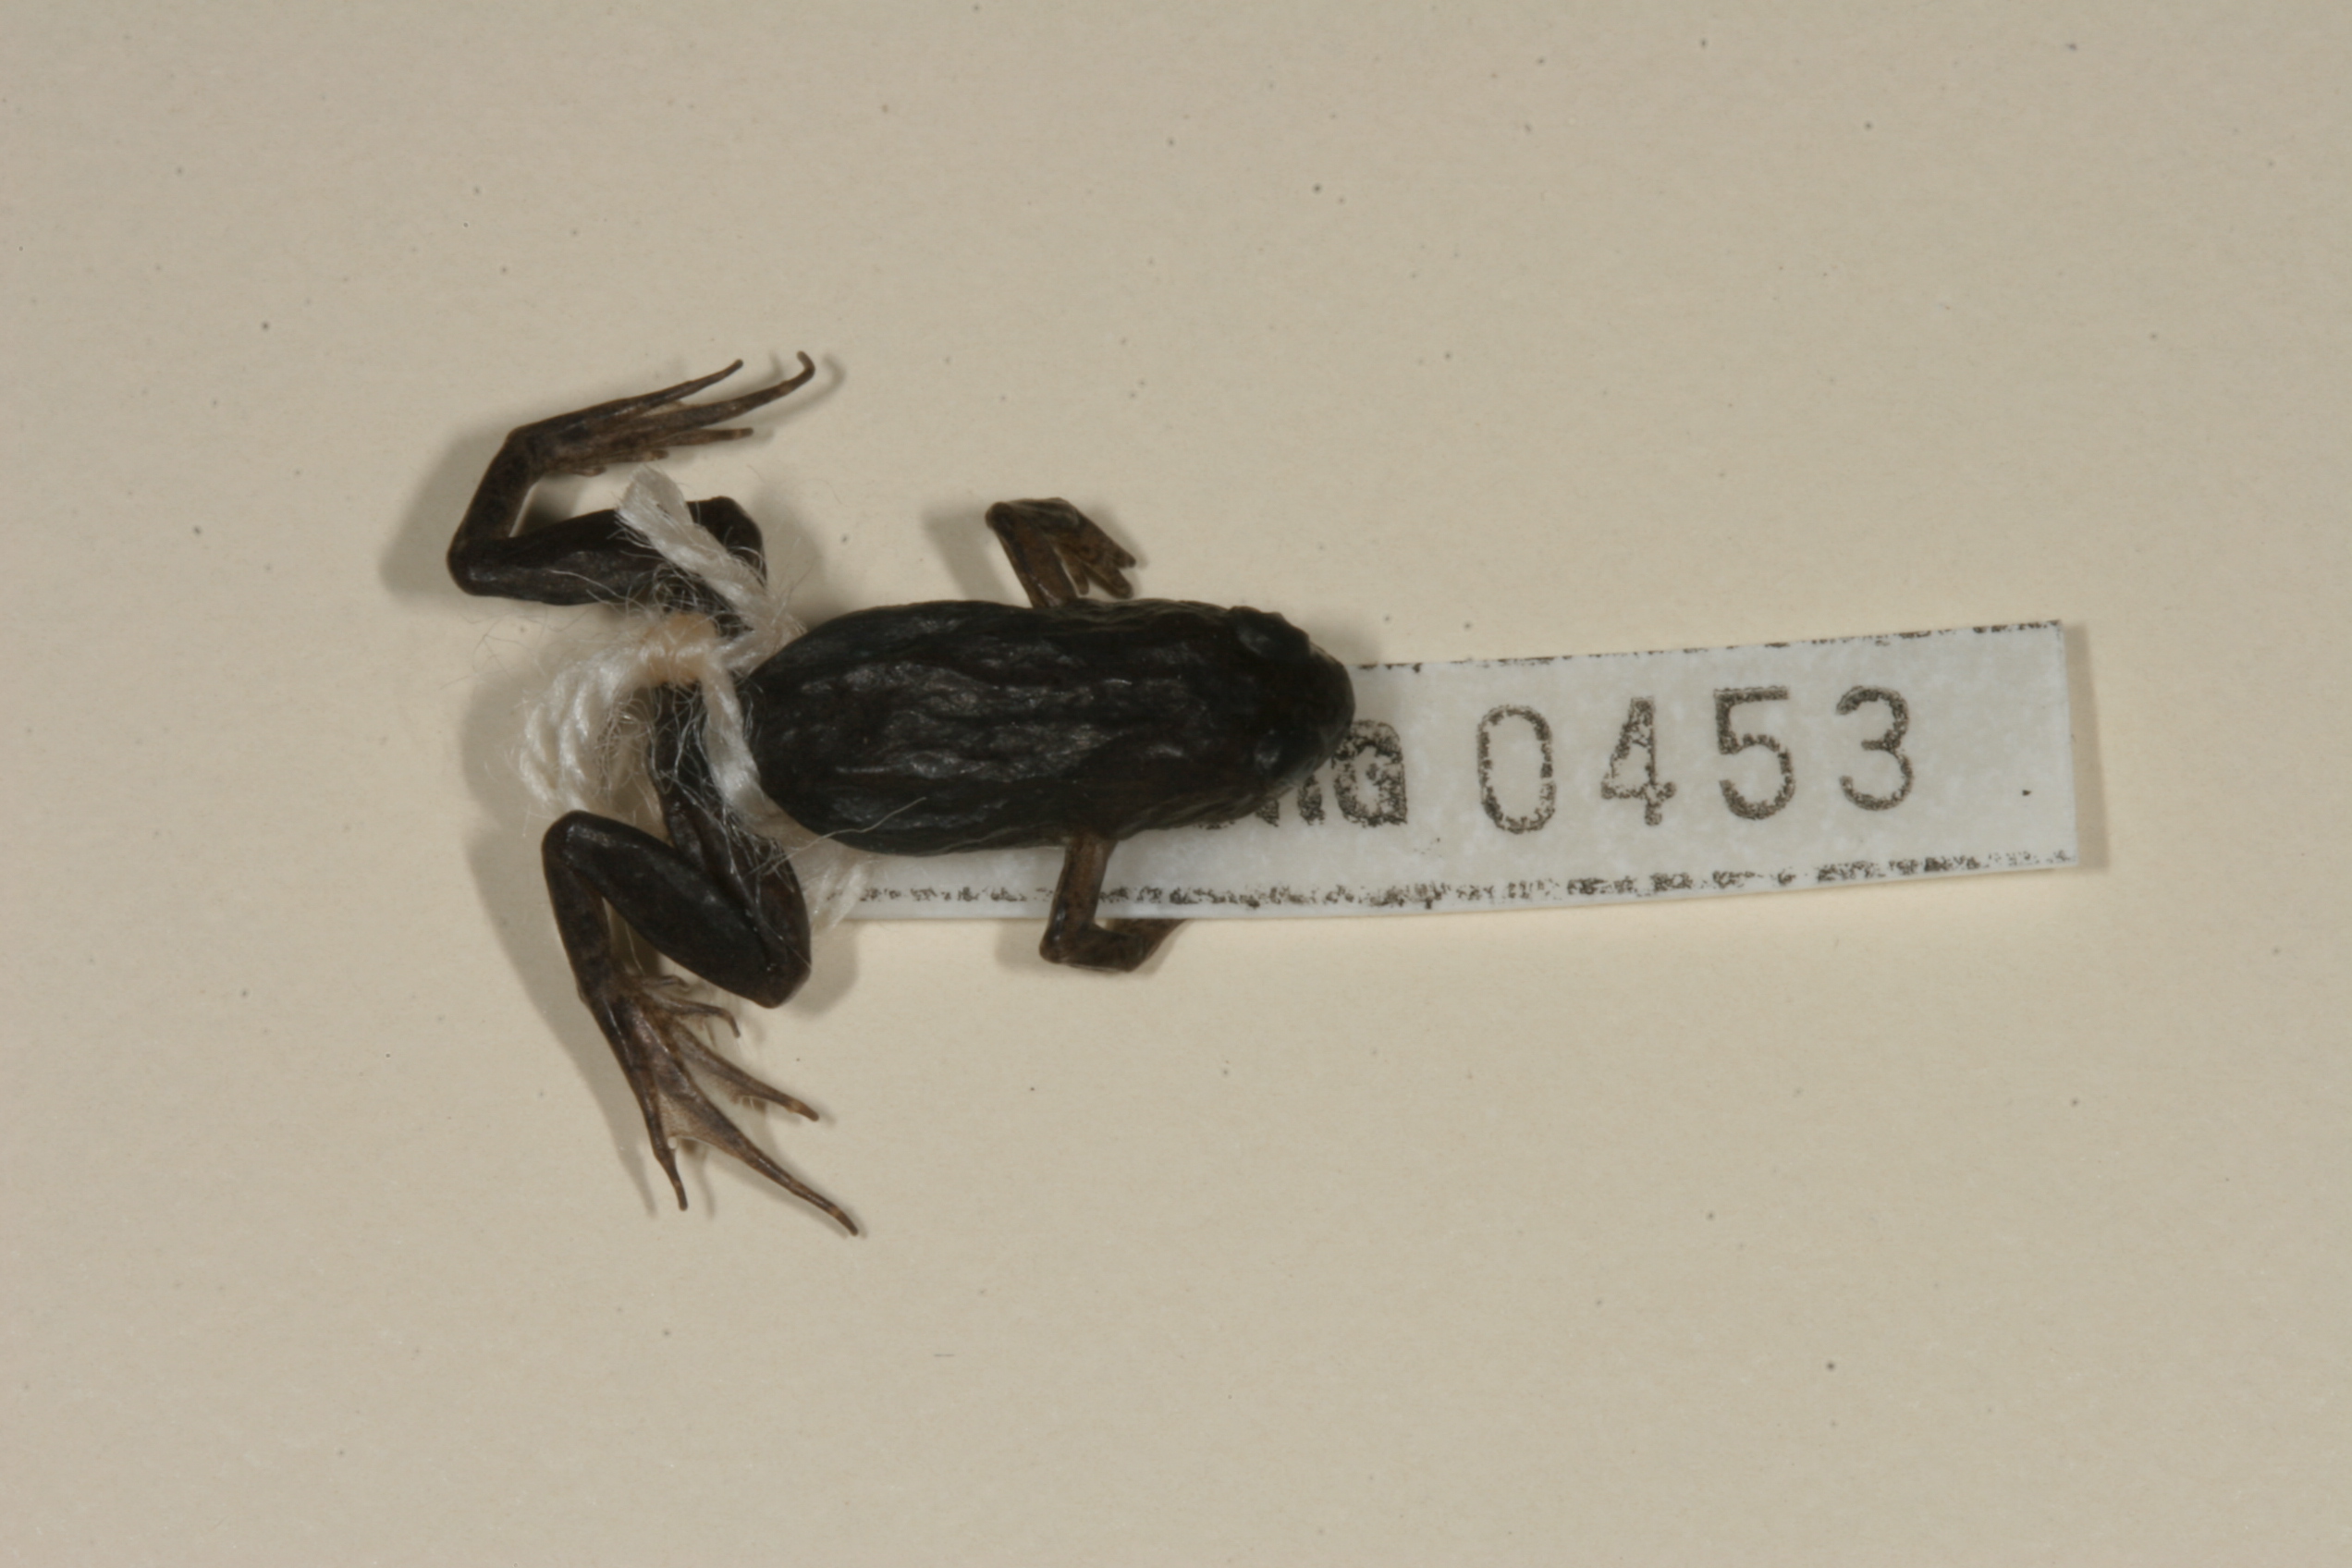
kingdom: Animalia
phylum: Chordata
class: Amphibia
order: Anura
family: Pyxicephalidae
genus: Microbatrachella
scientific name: Microbatrachella capensis
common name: Cape flats frog
